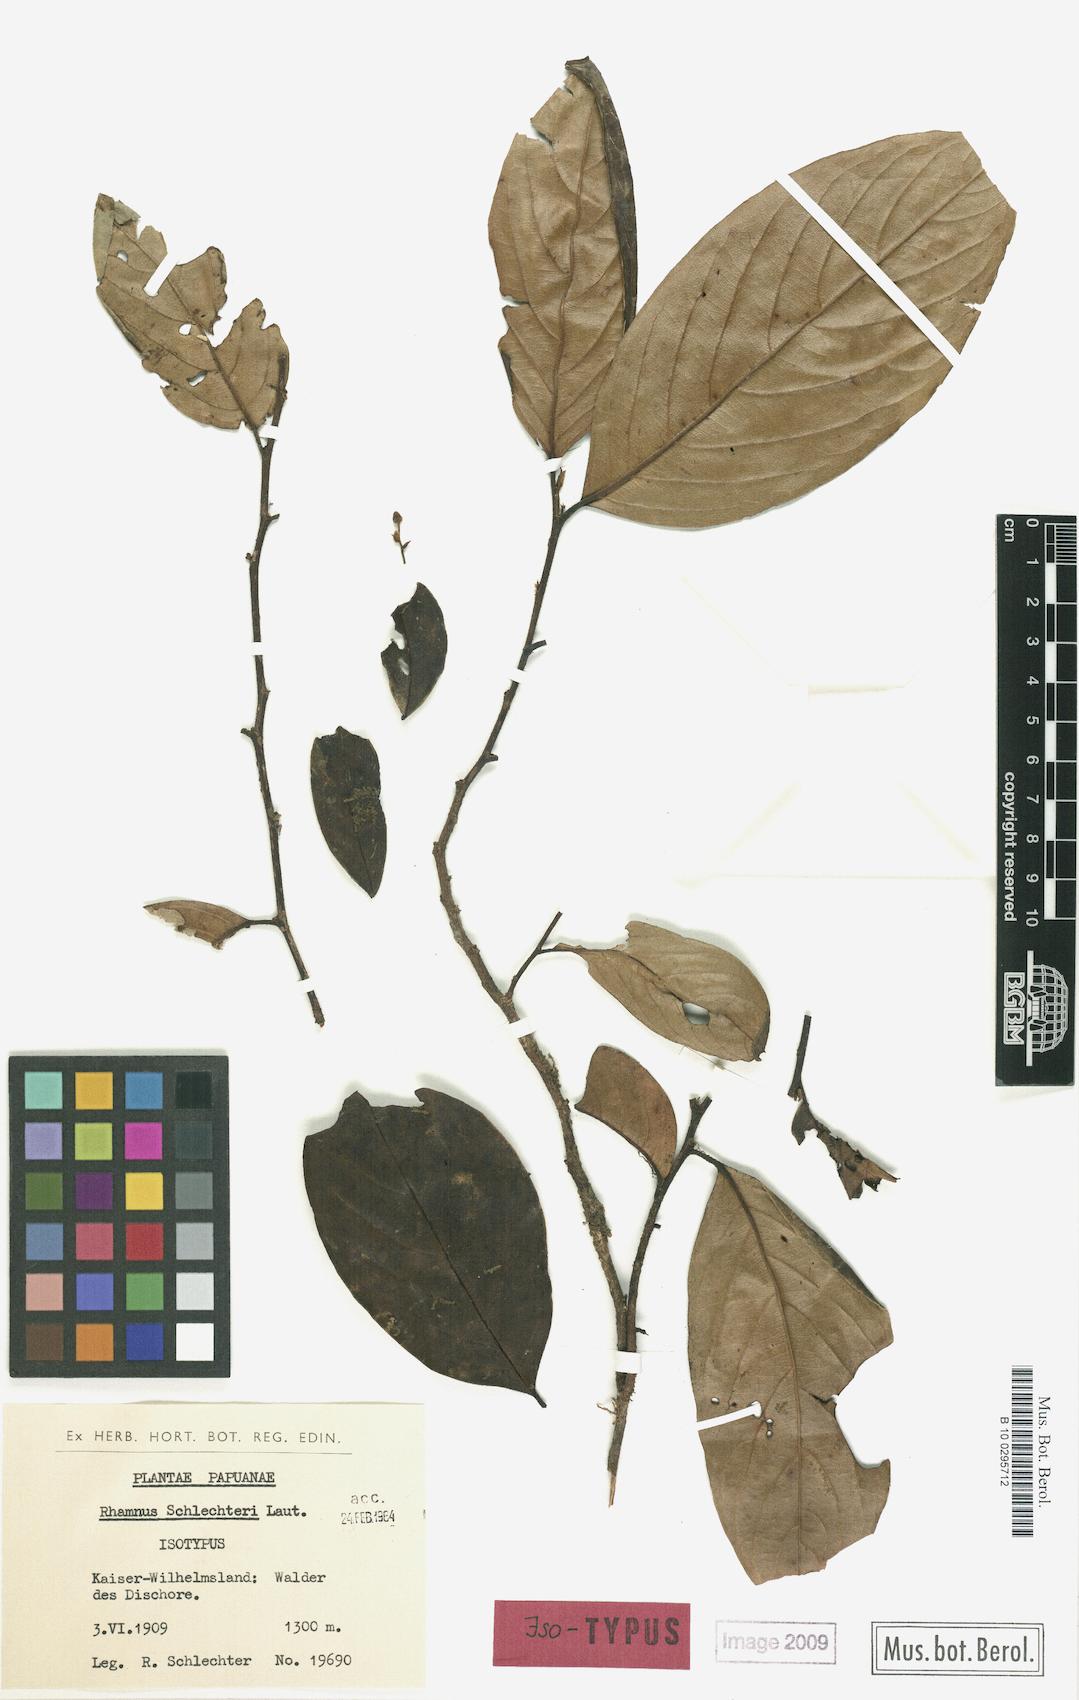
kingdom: Plantae
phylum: Tracheophyta
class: Magnoliopsida
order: Rosales
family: Rhamnaceae
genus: Rhamnus
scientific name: Rhamnus schlechteri
